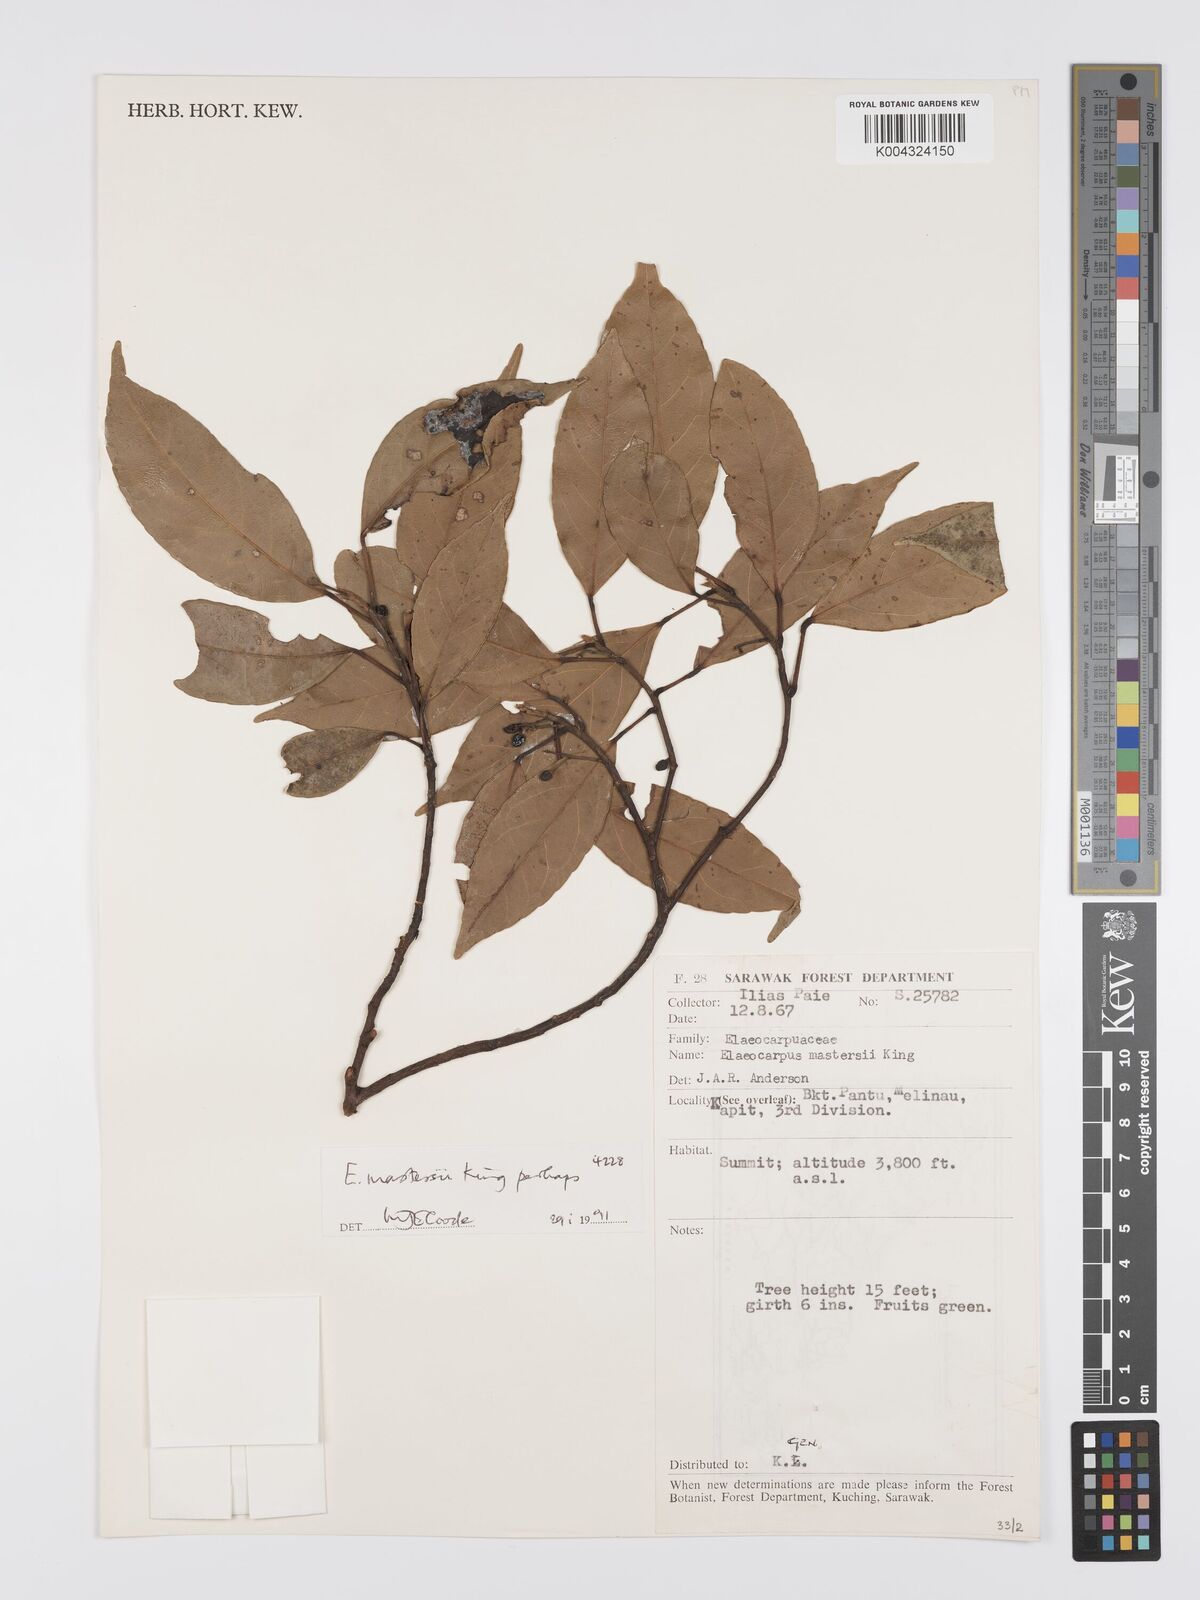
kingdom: Plantae
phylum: Tracheophyta
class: Magnoliopsida
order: Oxalidales
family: Elaeocarpaceae
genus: Elaeocarpus
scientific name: Elaeocarpus mastersii
